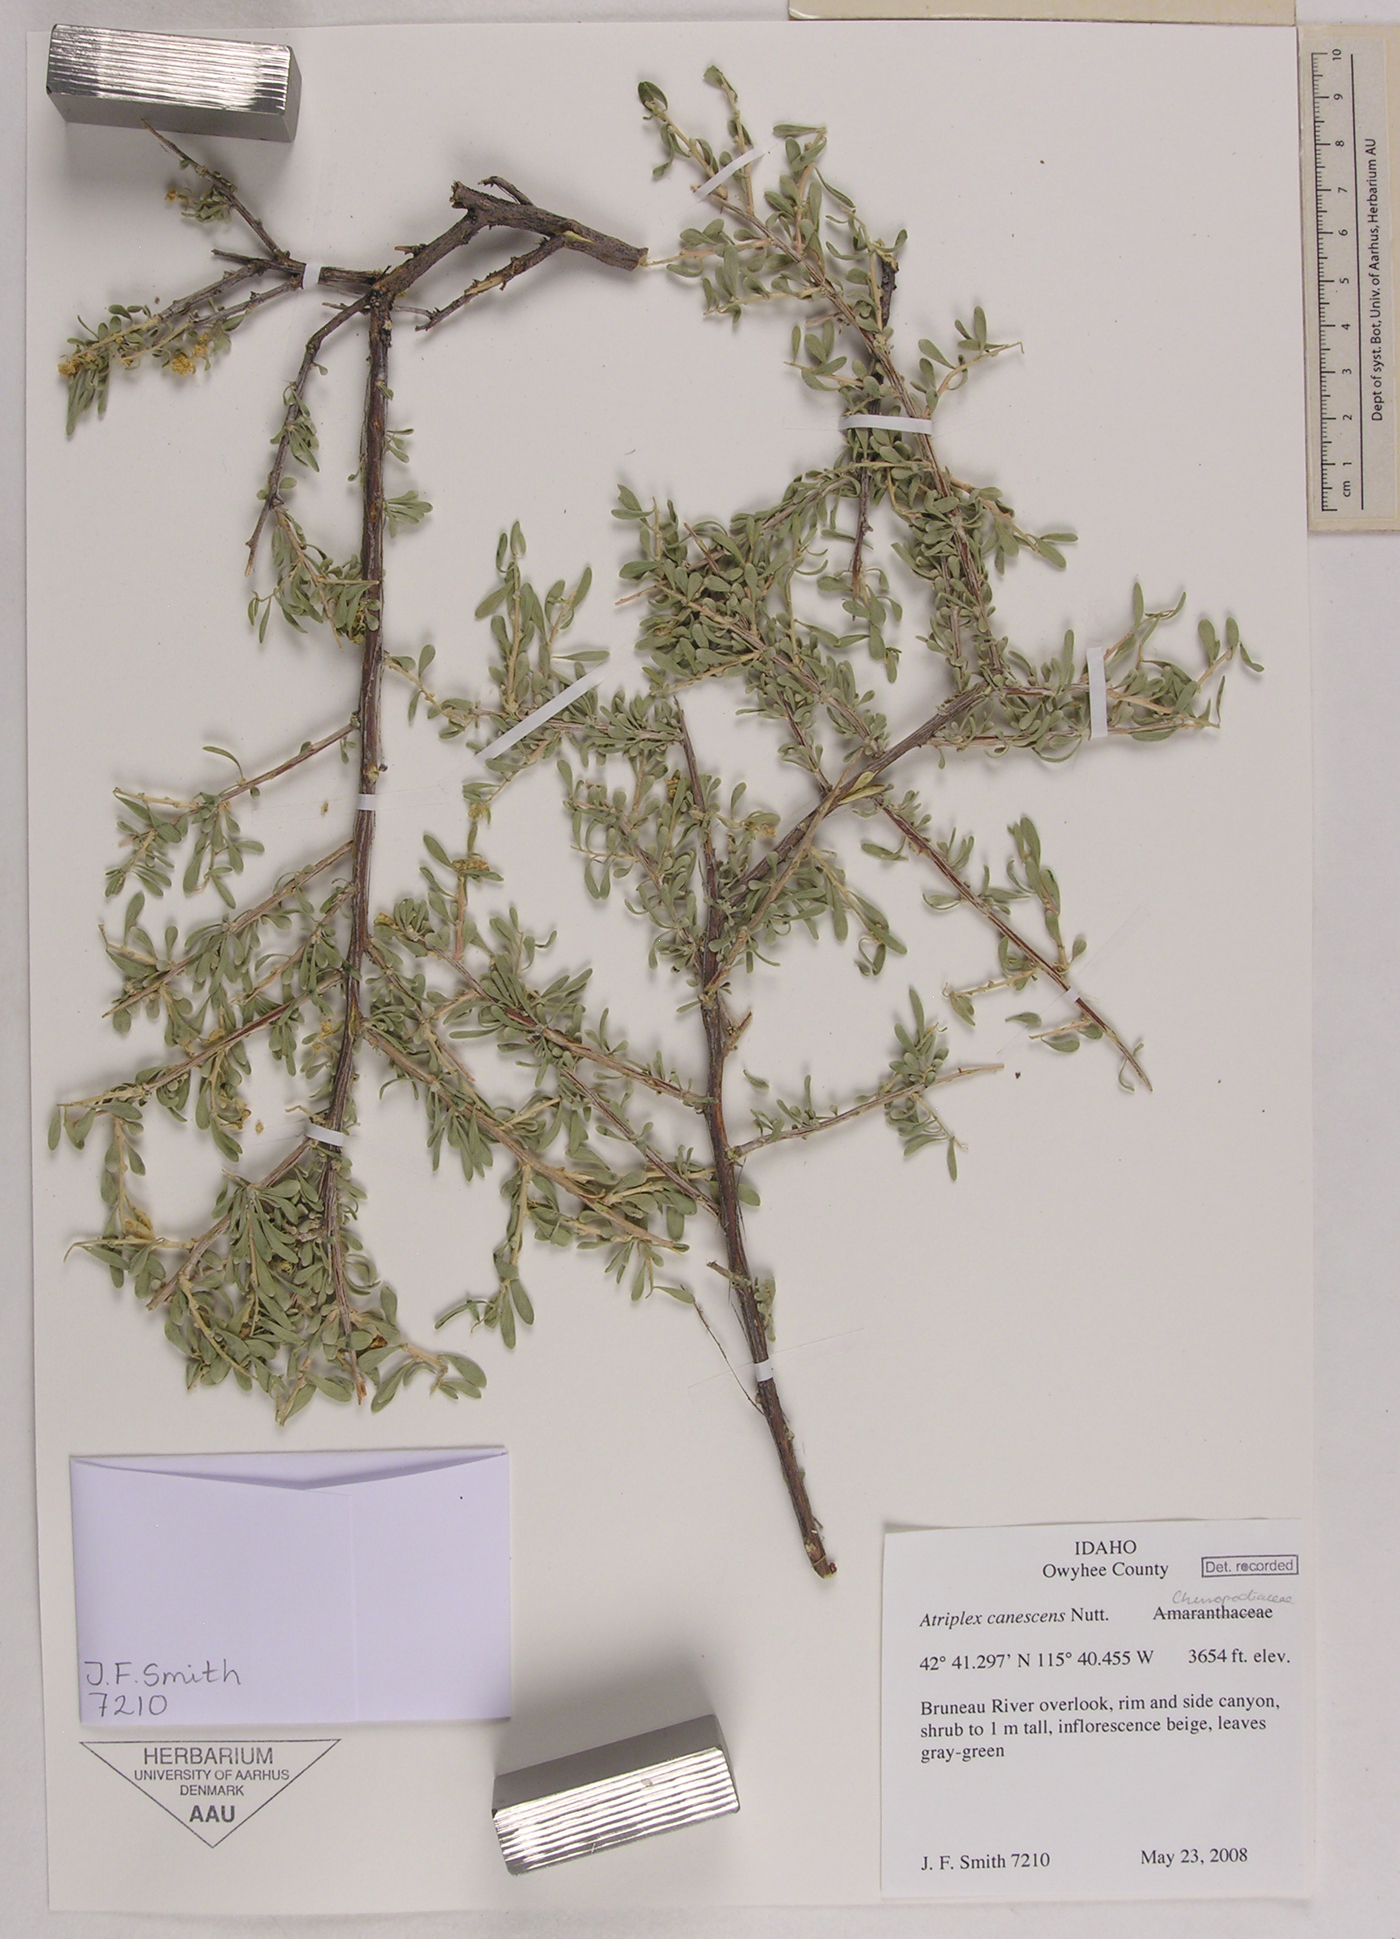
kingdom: Plantae
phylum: Tracheophyta
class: Magnoliopsida
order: Caryophyllales
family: Amaranthaceae
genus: Atriplex
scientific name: Atriplex canescens
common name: Four-wing saltbush
